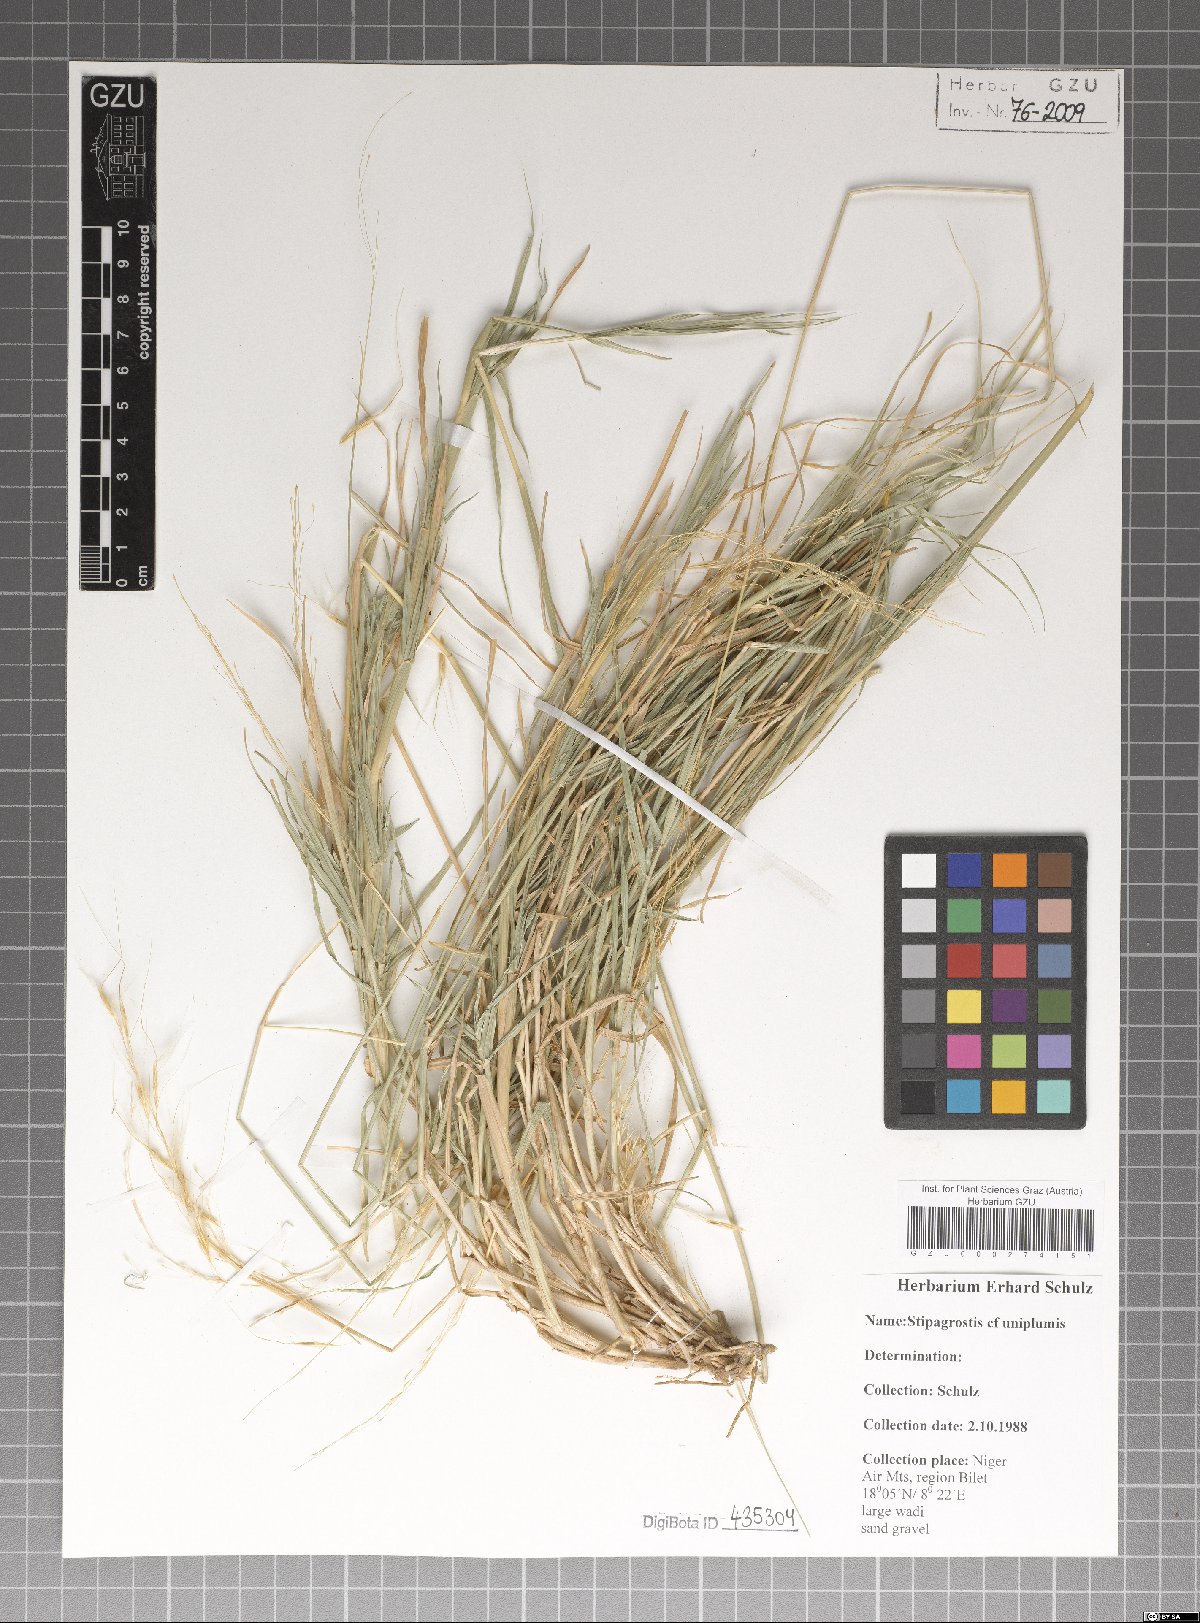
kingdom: Plantae
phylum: Tracheophyta
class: Liliopsida
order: Poales
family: Poaceae
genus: Stipagrostis
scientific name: Stipagrostis uniplumis
